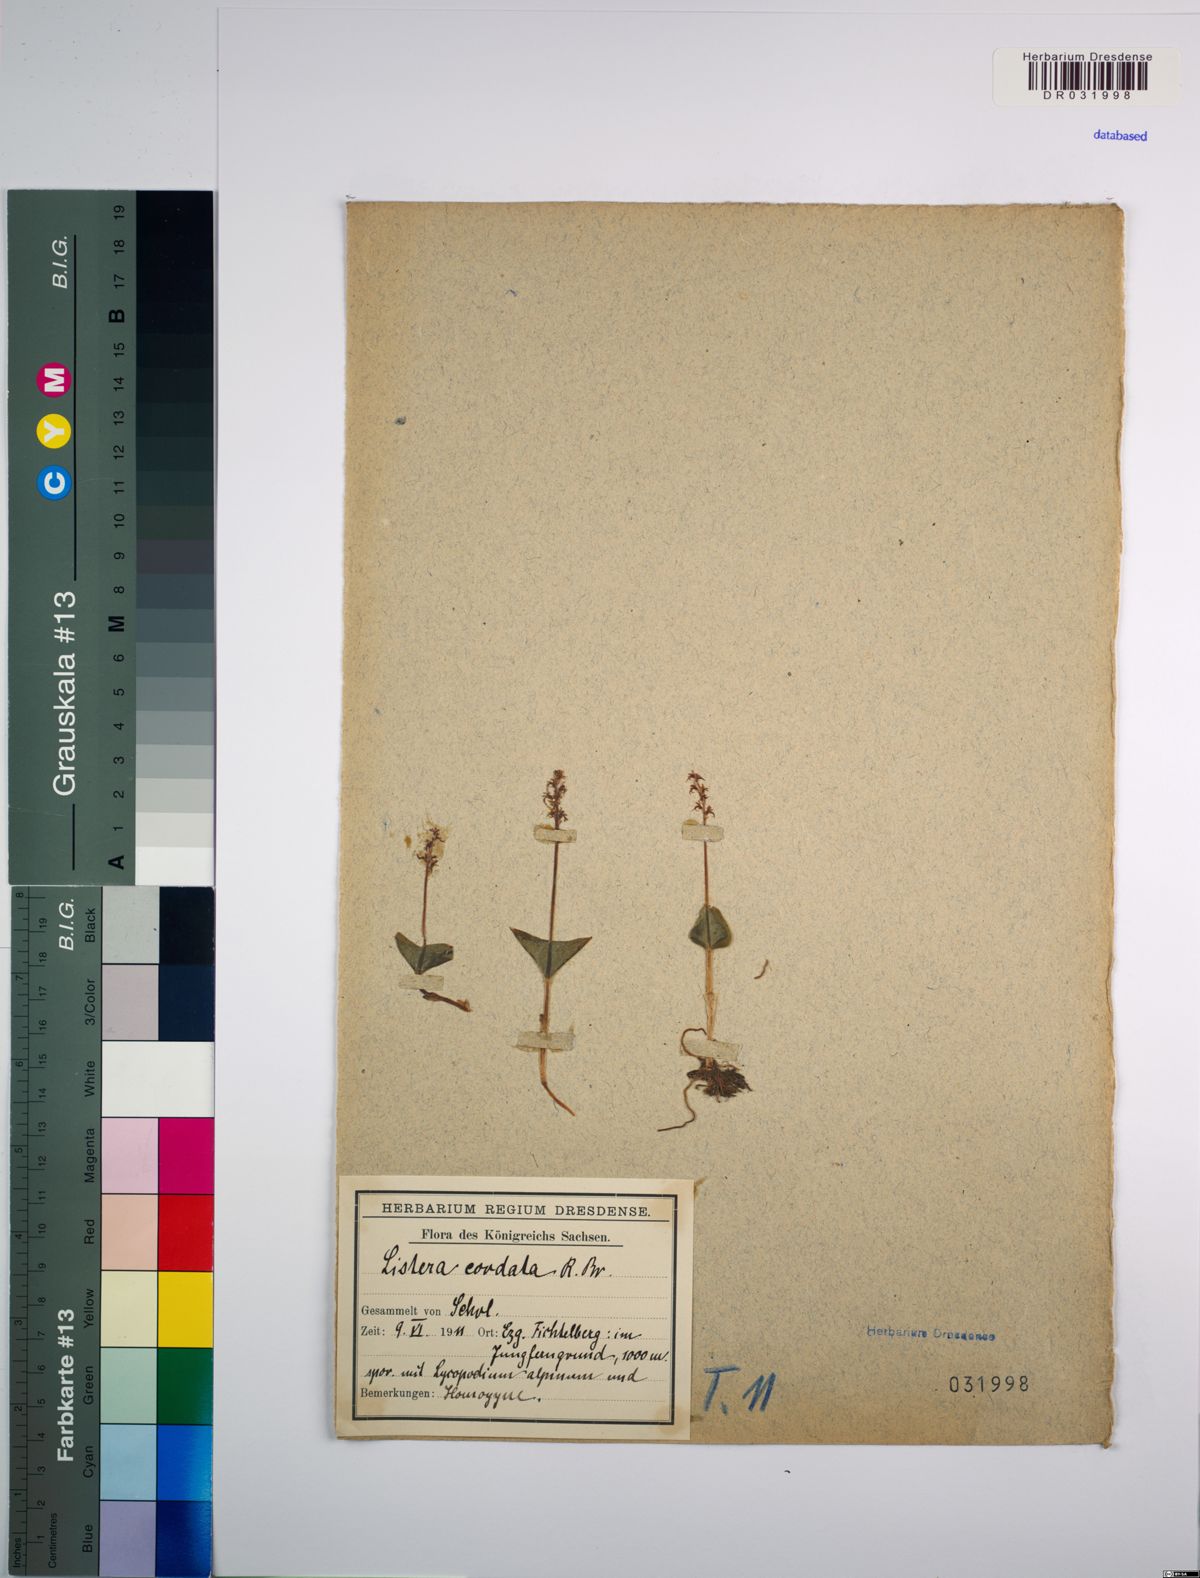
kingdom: Plantae
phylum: Tracheophyta
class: Liliopsida
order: Asparagales
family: Orchidaceae
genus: Neottia
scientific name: Neottia cordata
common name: Lesser twayblade
